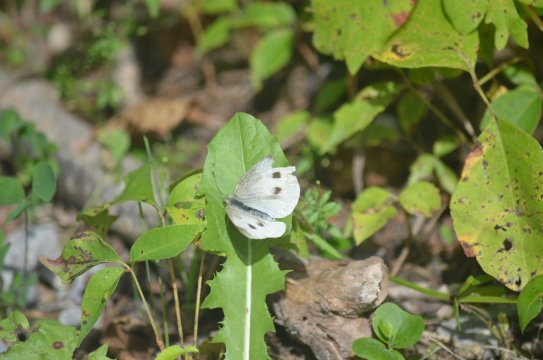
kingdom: Animalia
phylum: Arthropoda
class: Insecta
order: Lepidoptera
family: Pieridae
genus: Pieris
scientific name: Pieris rapae
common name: Cabbage White
